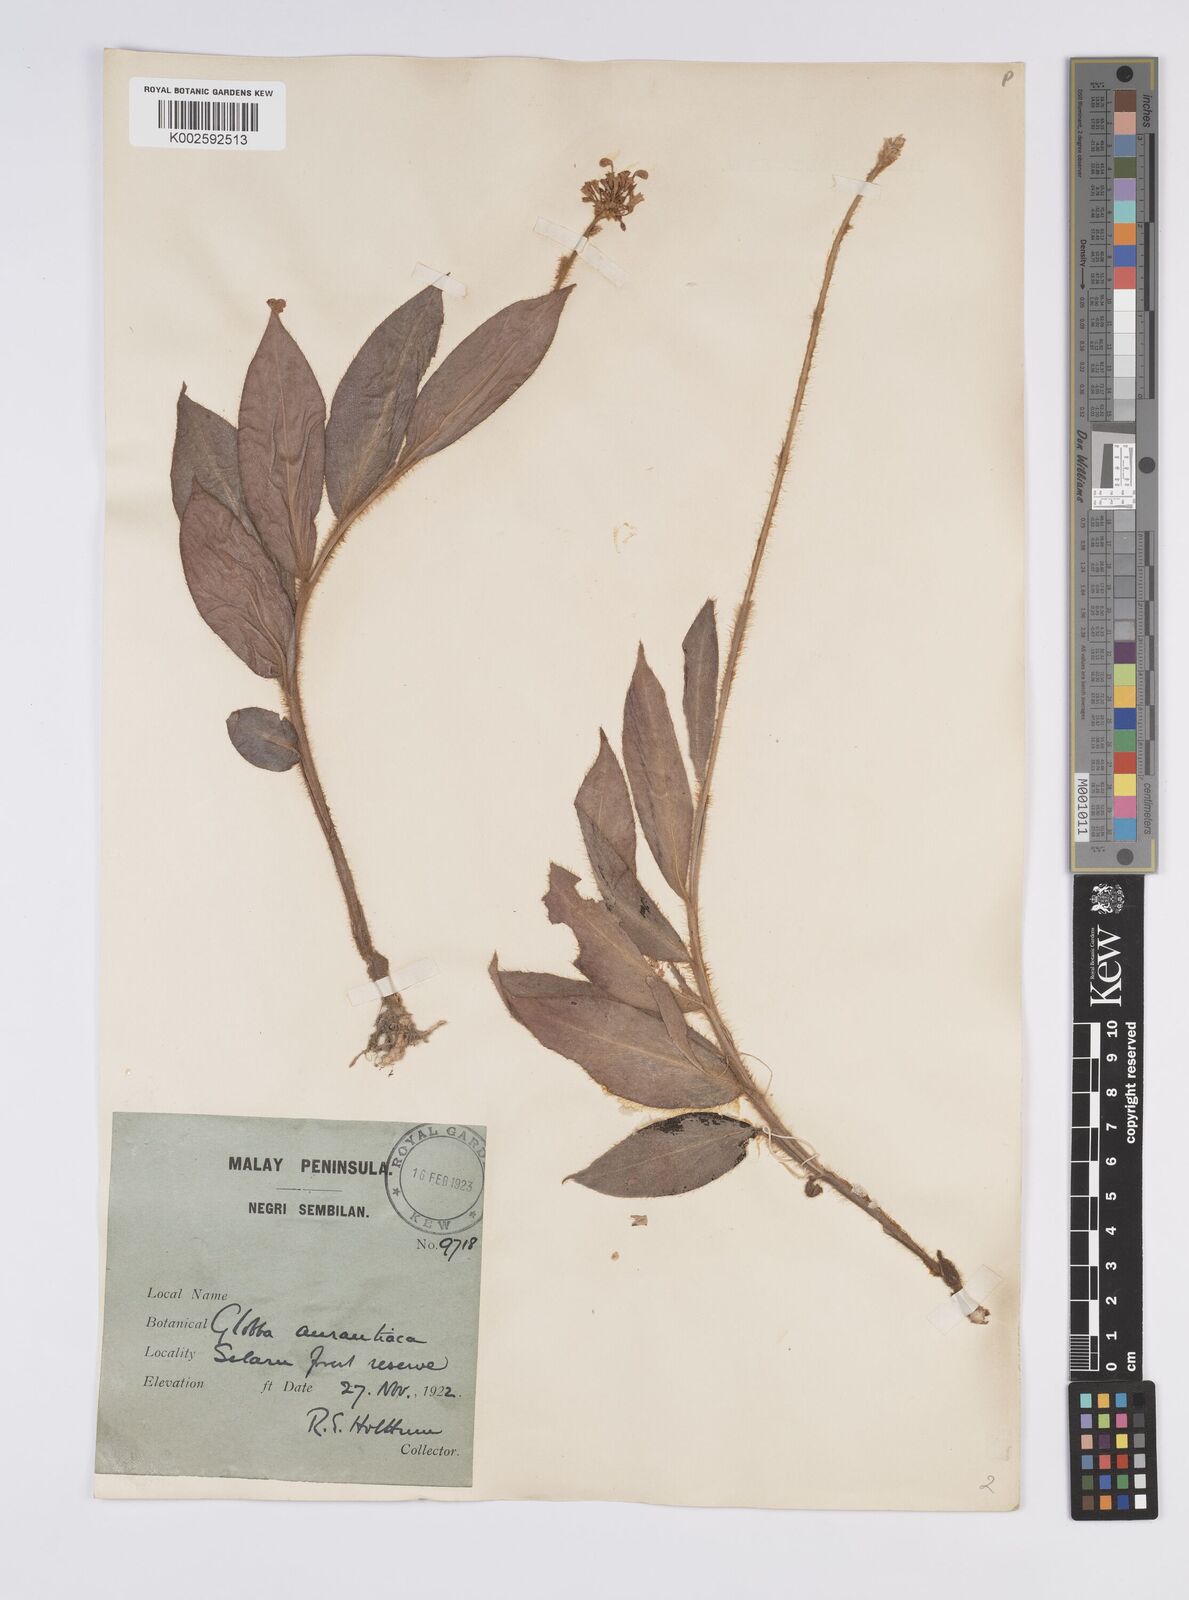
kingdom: Plantae
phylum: Tracheophyta
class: Liliopsida
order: Zingiberales
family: Zingiberaceae
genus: Globba
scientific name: Globba aurantiaca
